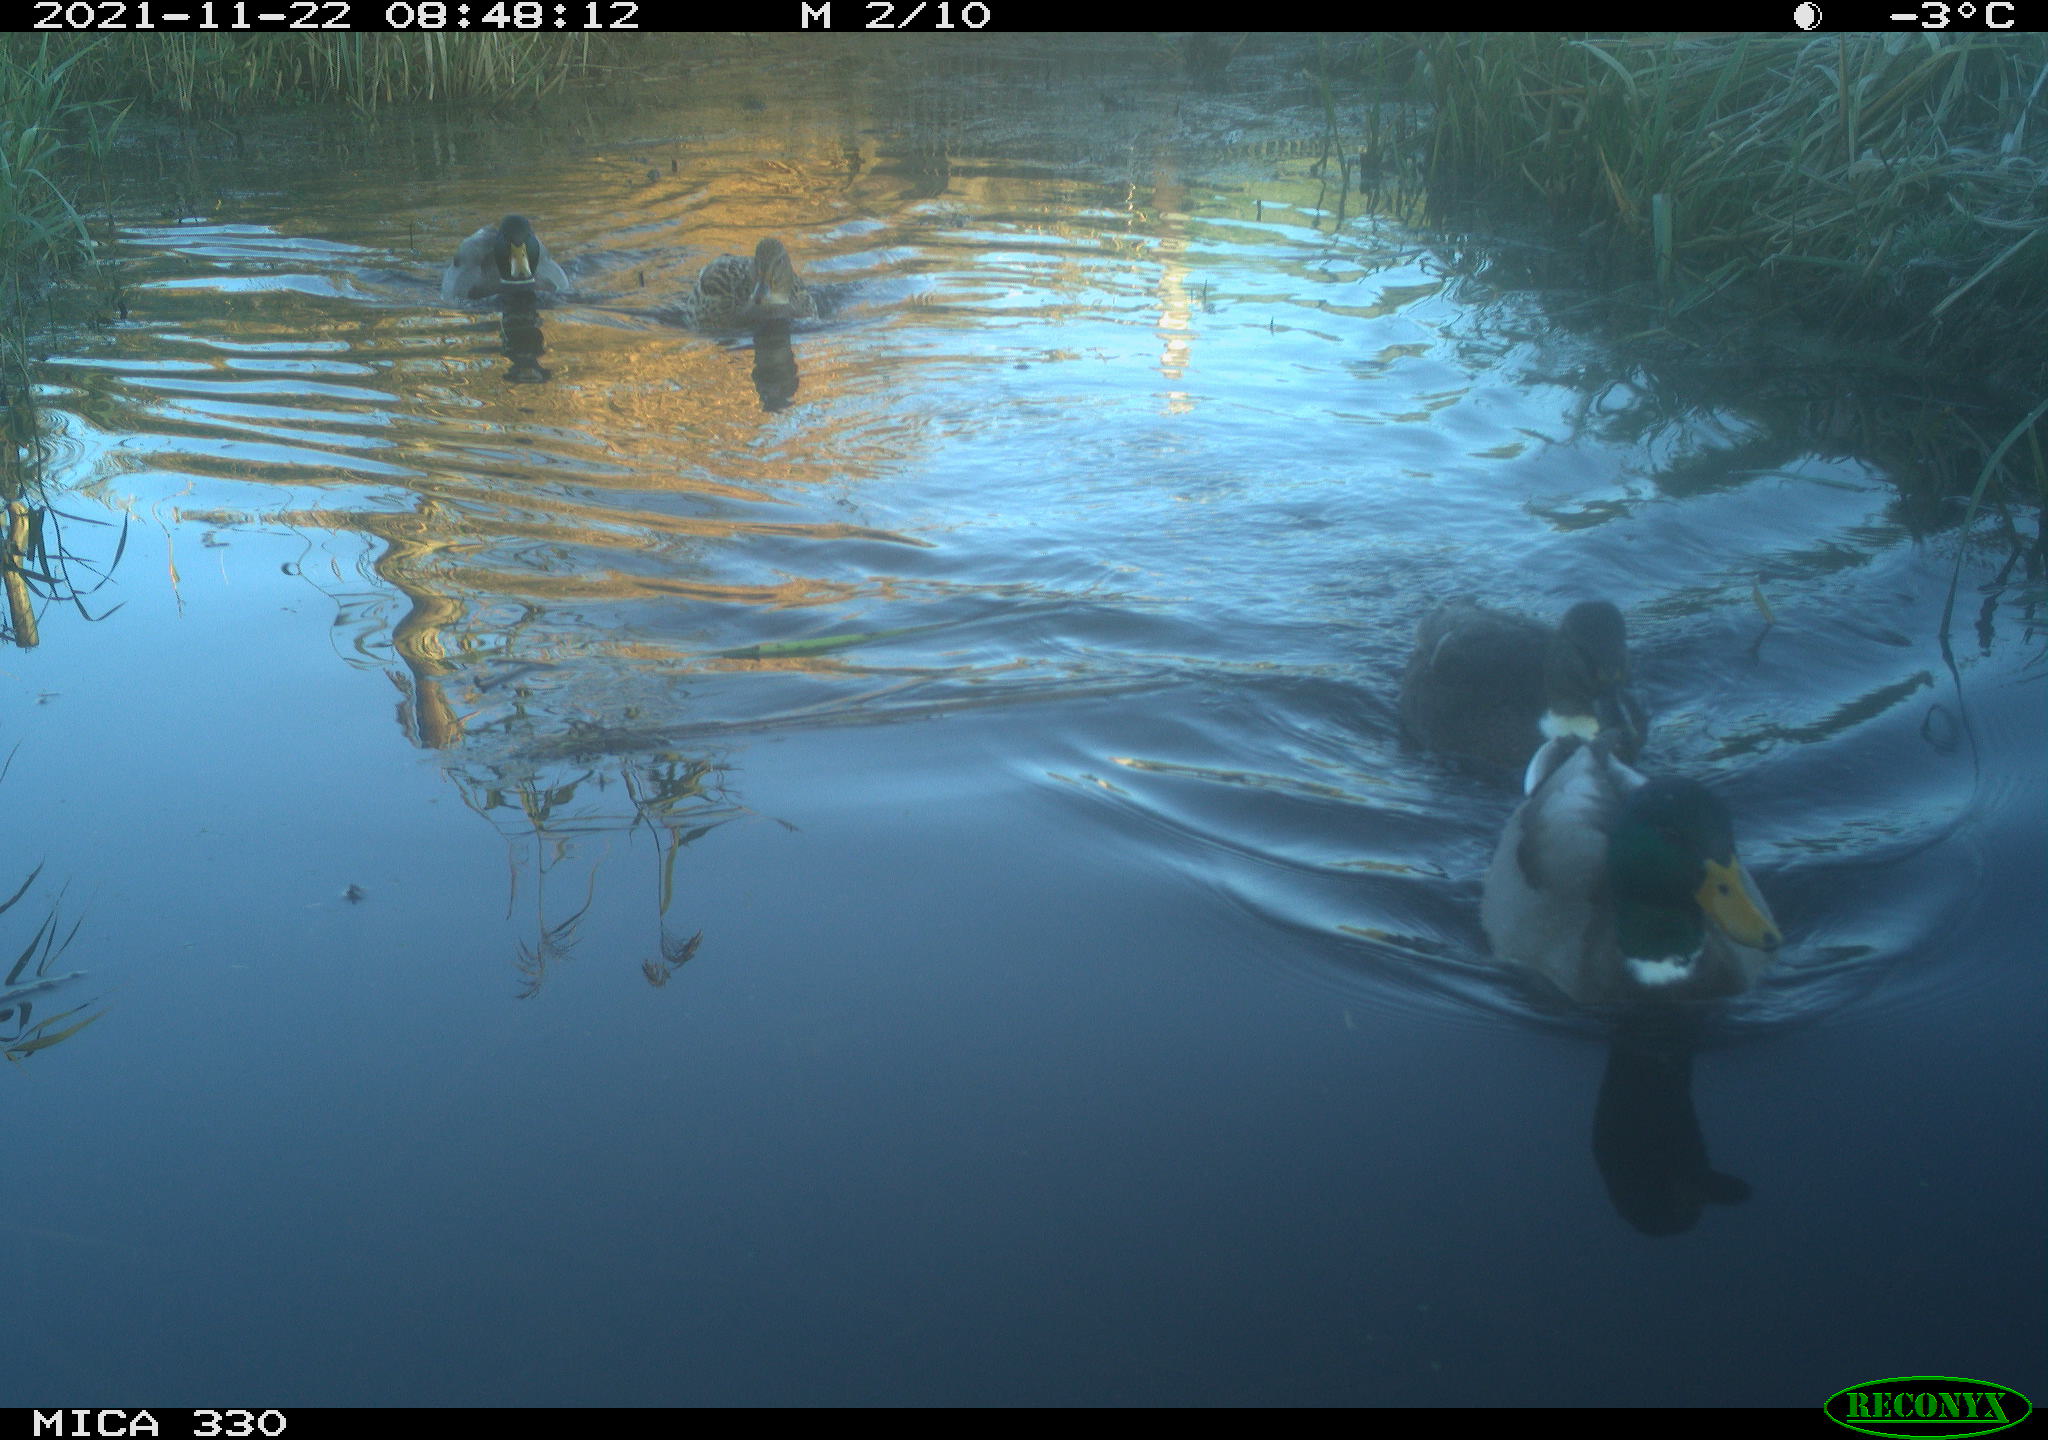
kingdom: Animalia
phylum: Chordata
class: Aves
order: Anseriformes
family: Anatidae
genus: Anas
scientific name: Anas platyrhynchos
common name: Mallard
